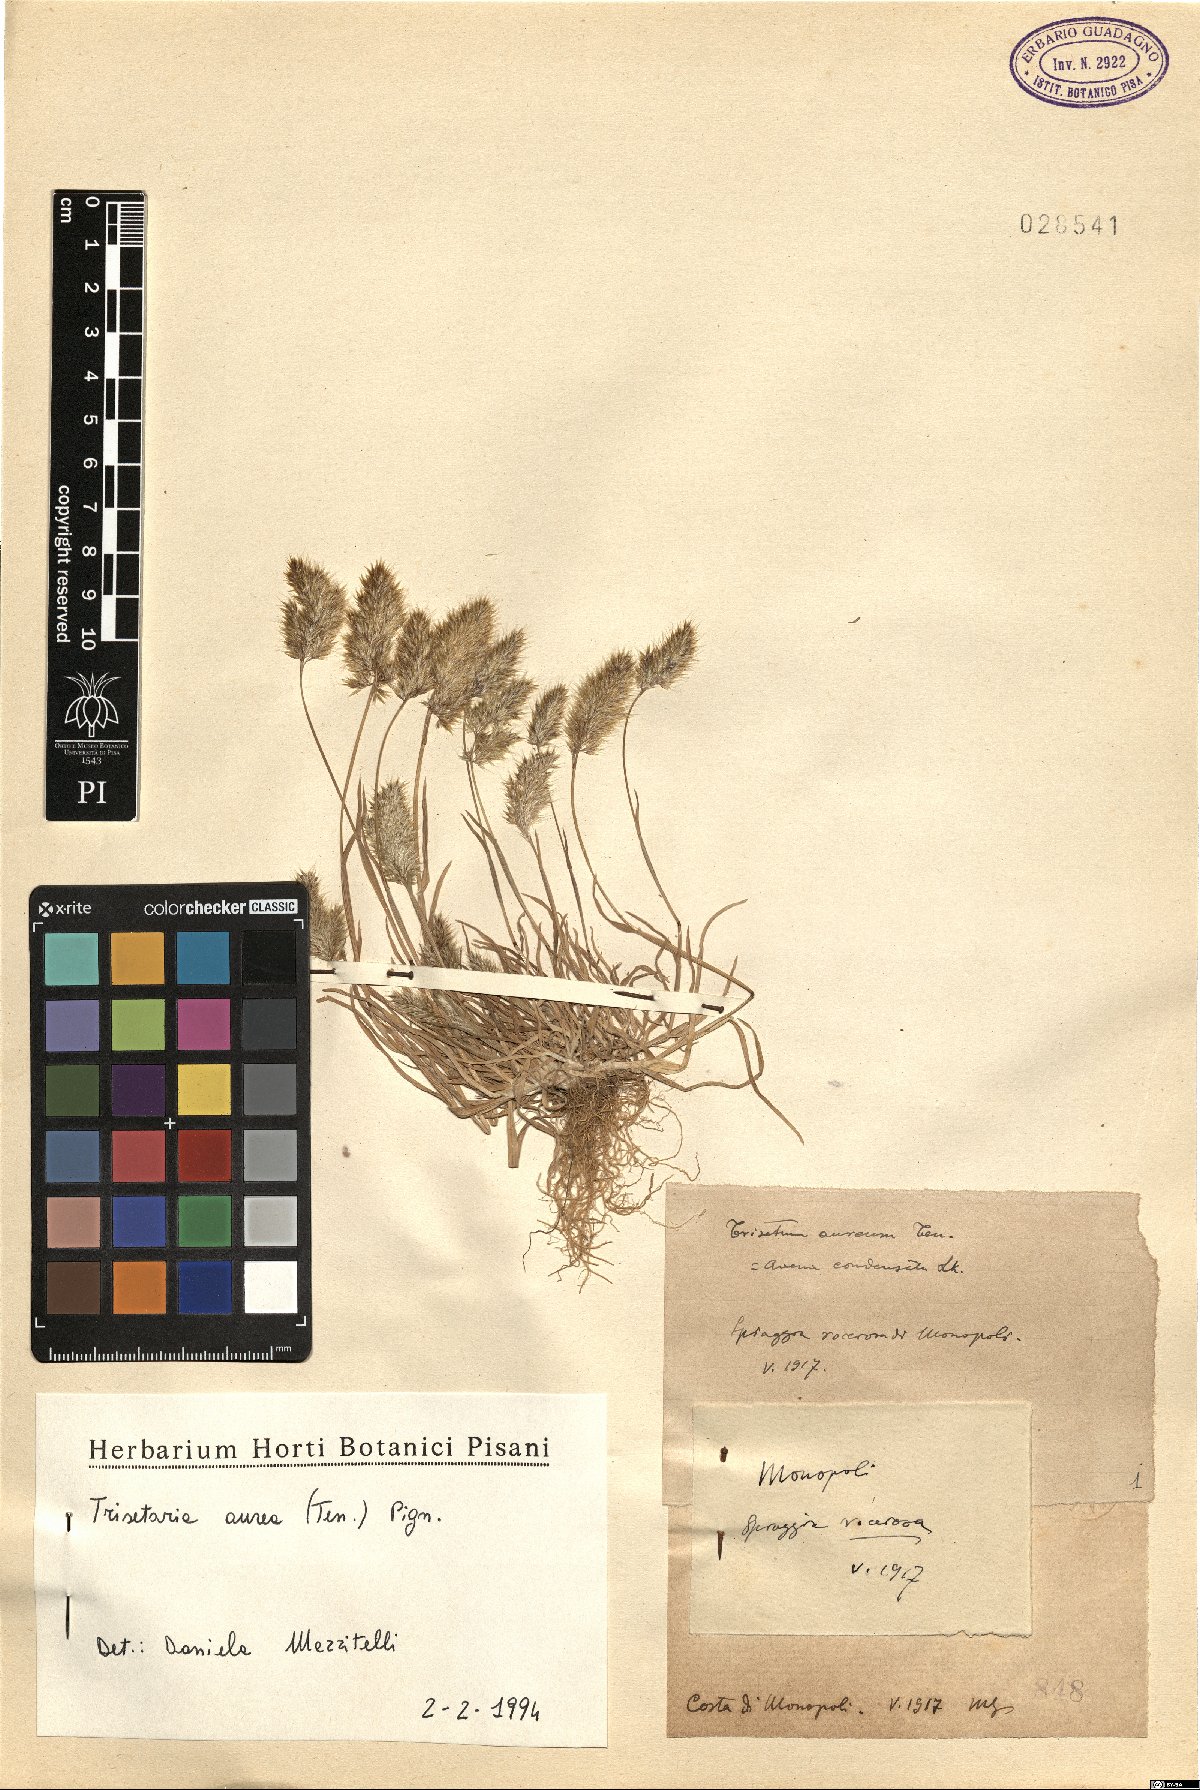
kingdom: Plantae
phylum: Tracheophyta
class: Liliopsida
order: Poales
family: Poaceae
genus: Trisetaria
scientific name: Trisetaria aurea
